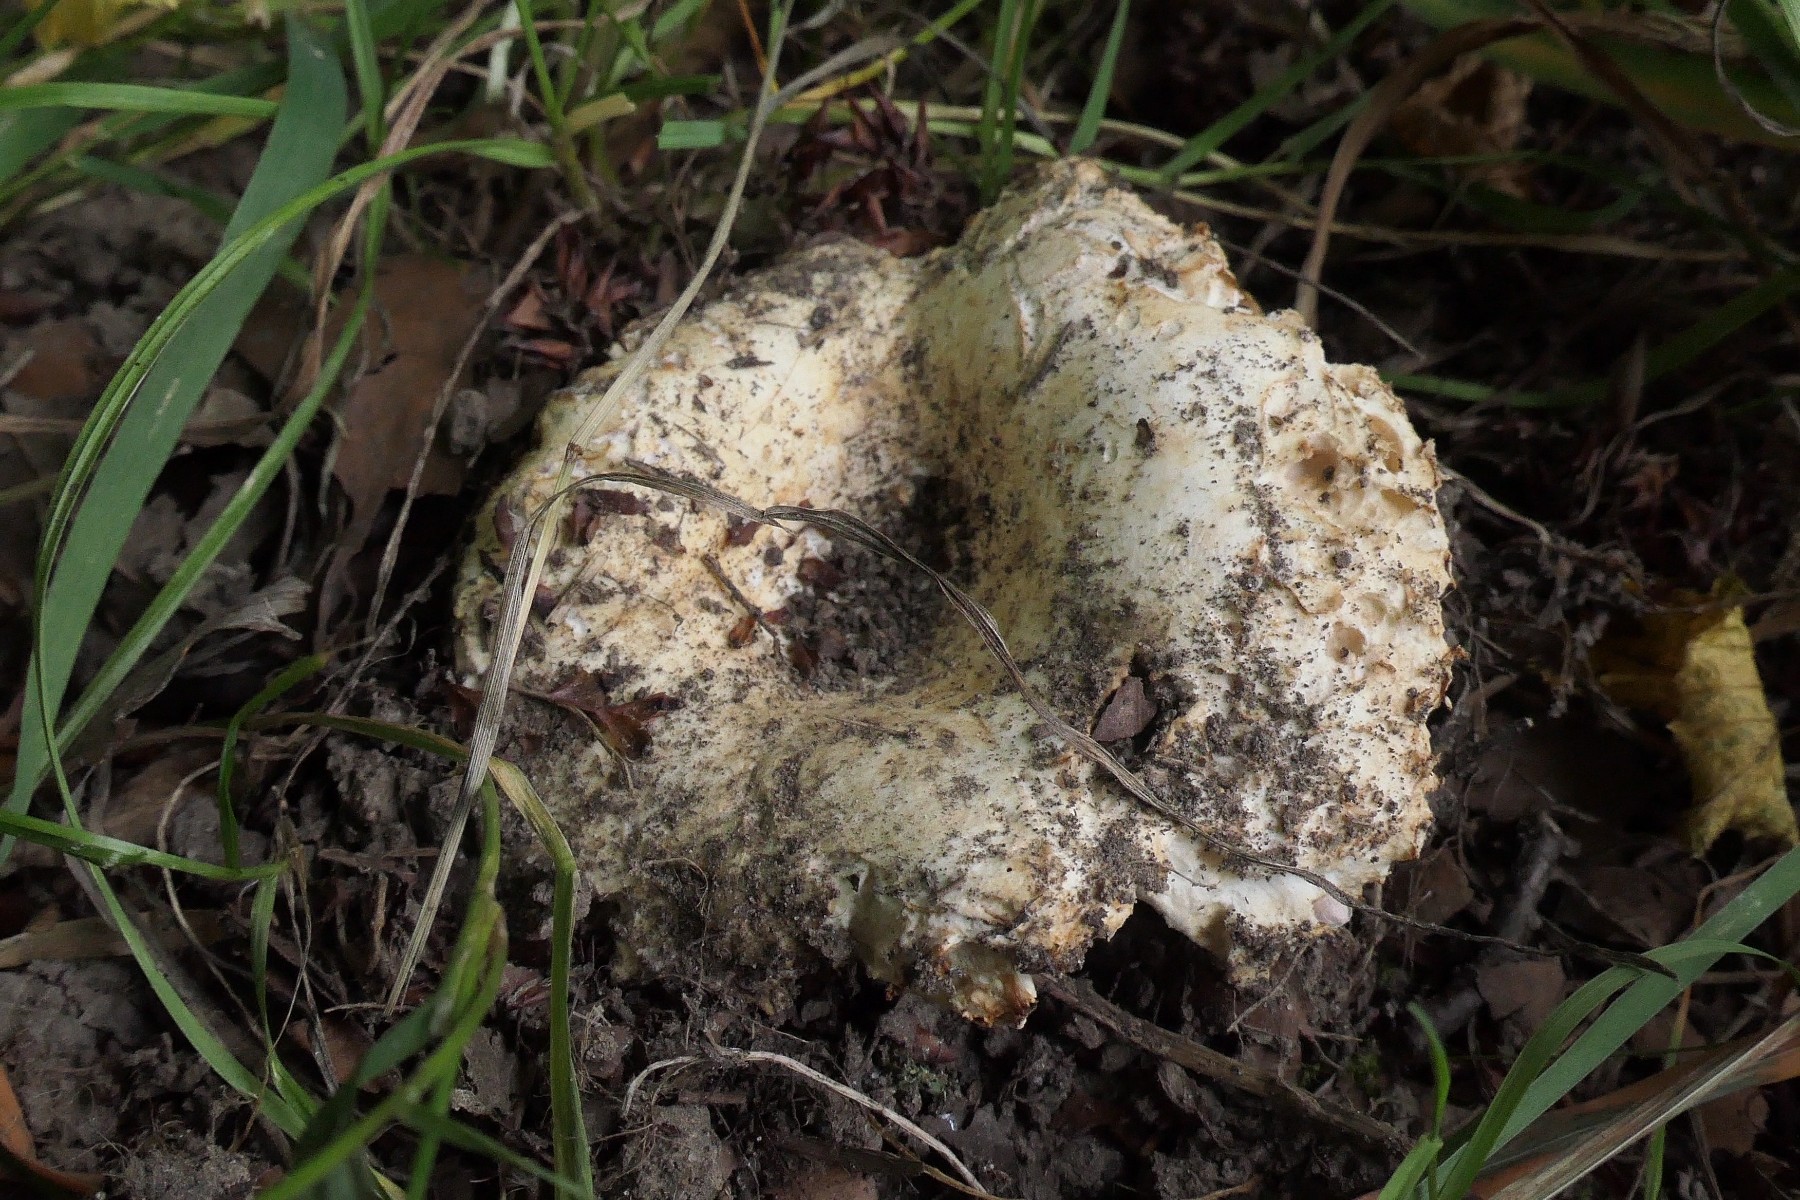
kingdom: Fungi
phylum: Basidiomycota
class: Agaricomycetes
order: Russulales
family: Russulaceae
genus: Russula
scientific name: Russula chloroides
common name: grønhalset tragt-skørhat
